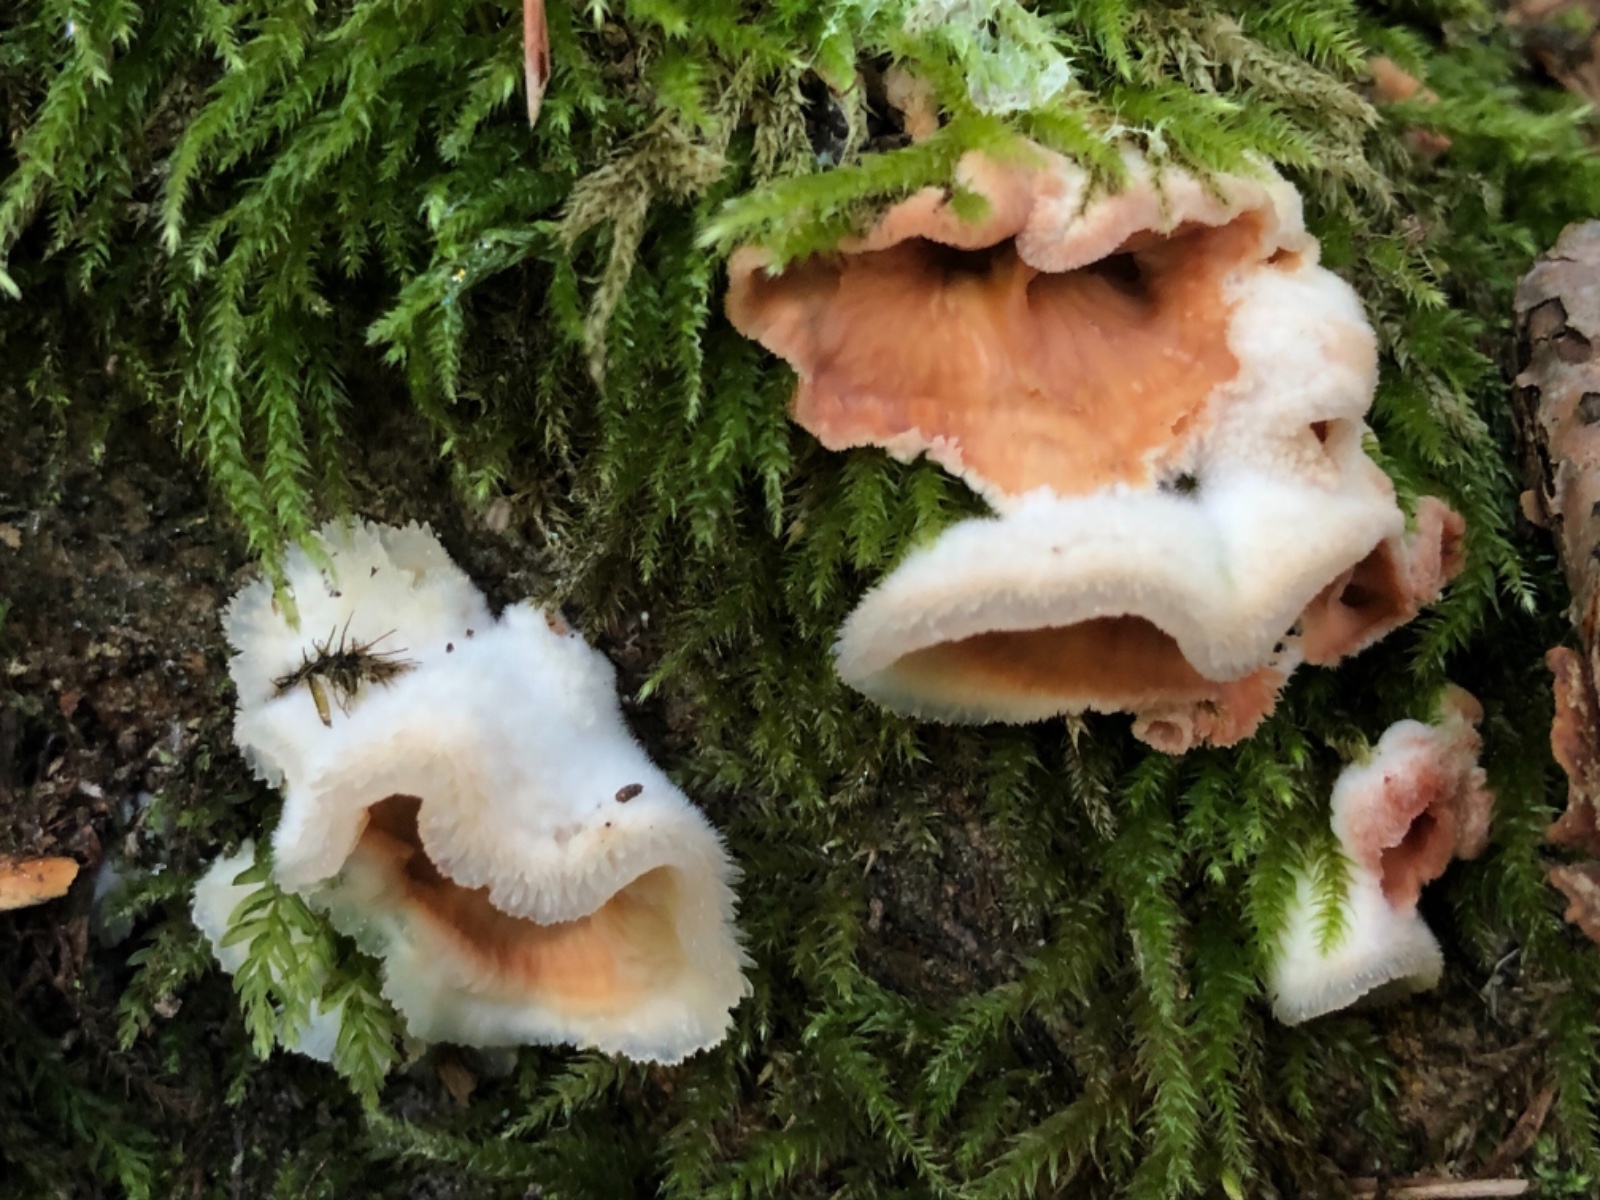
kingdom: Fungi
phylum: Basidiomycota
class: Agaricomycetes
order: Polyporales
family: Meruliaceae
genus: Phlebia
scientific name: Phlebia tremellosa
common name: bævrende åresvamp
